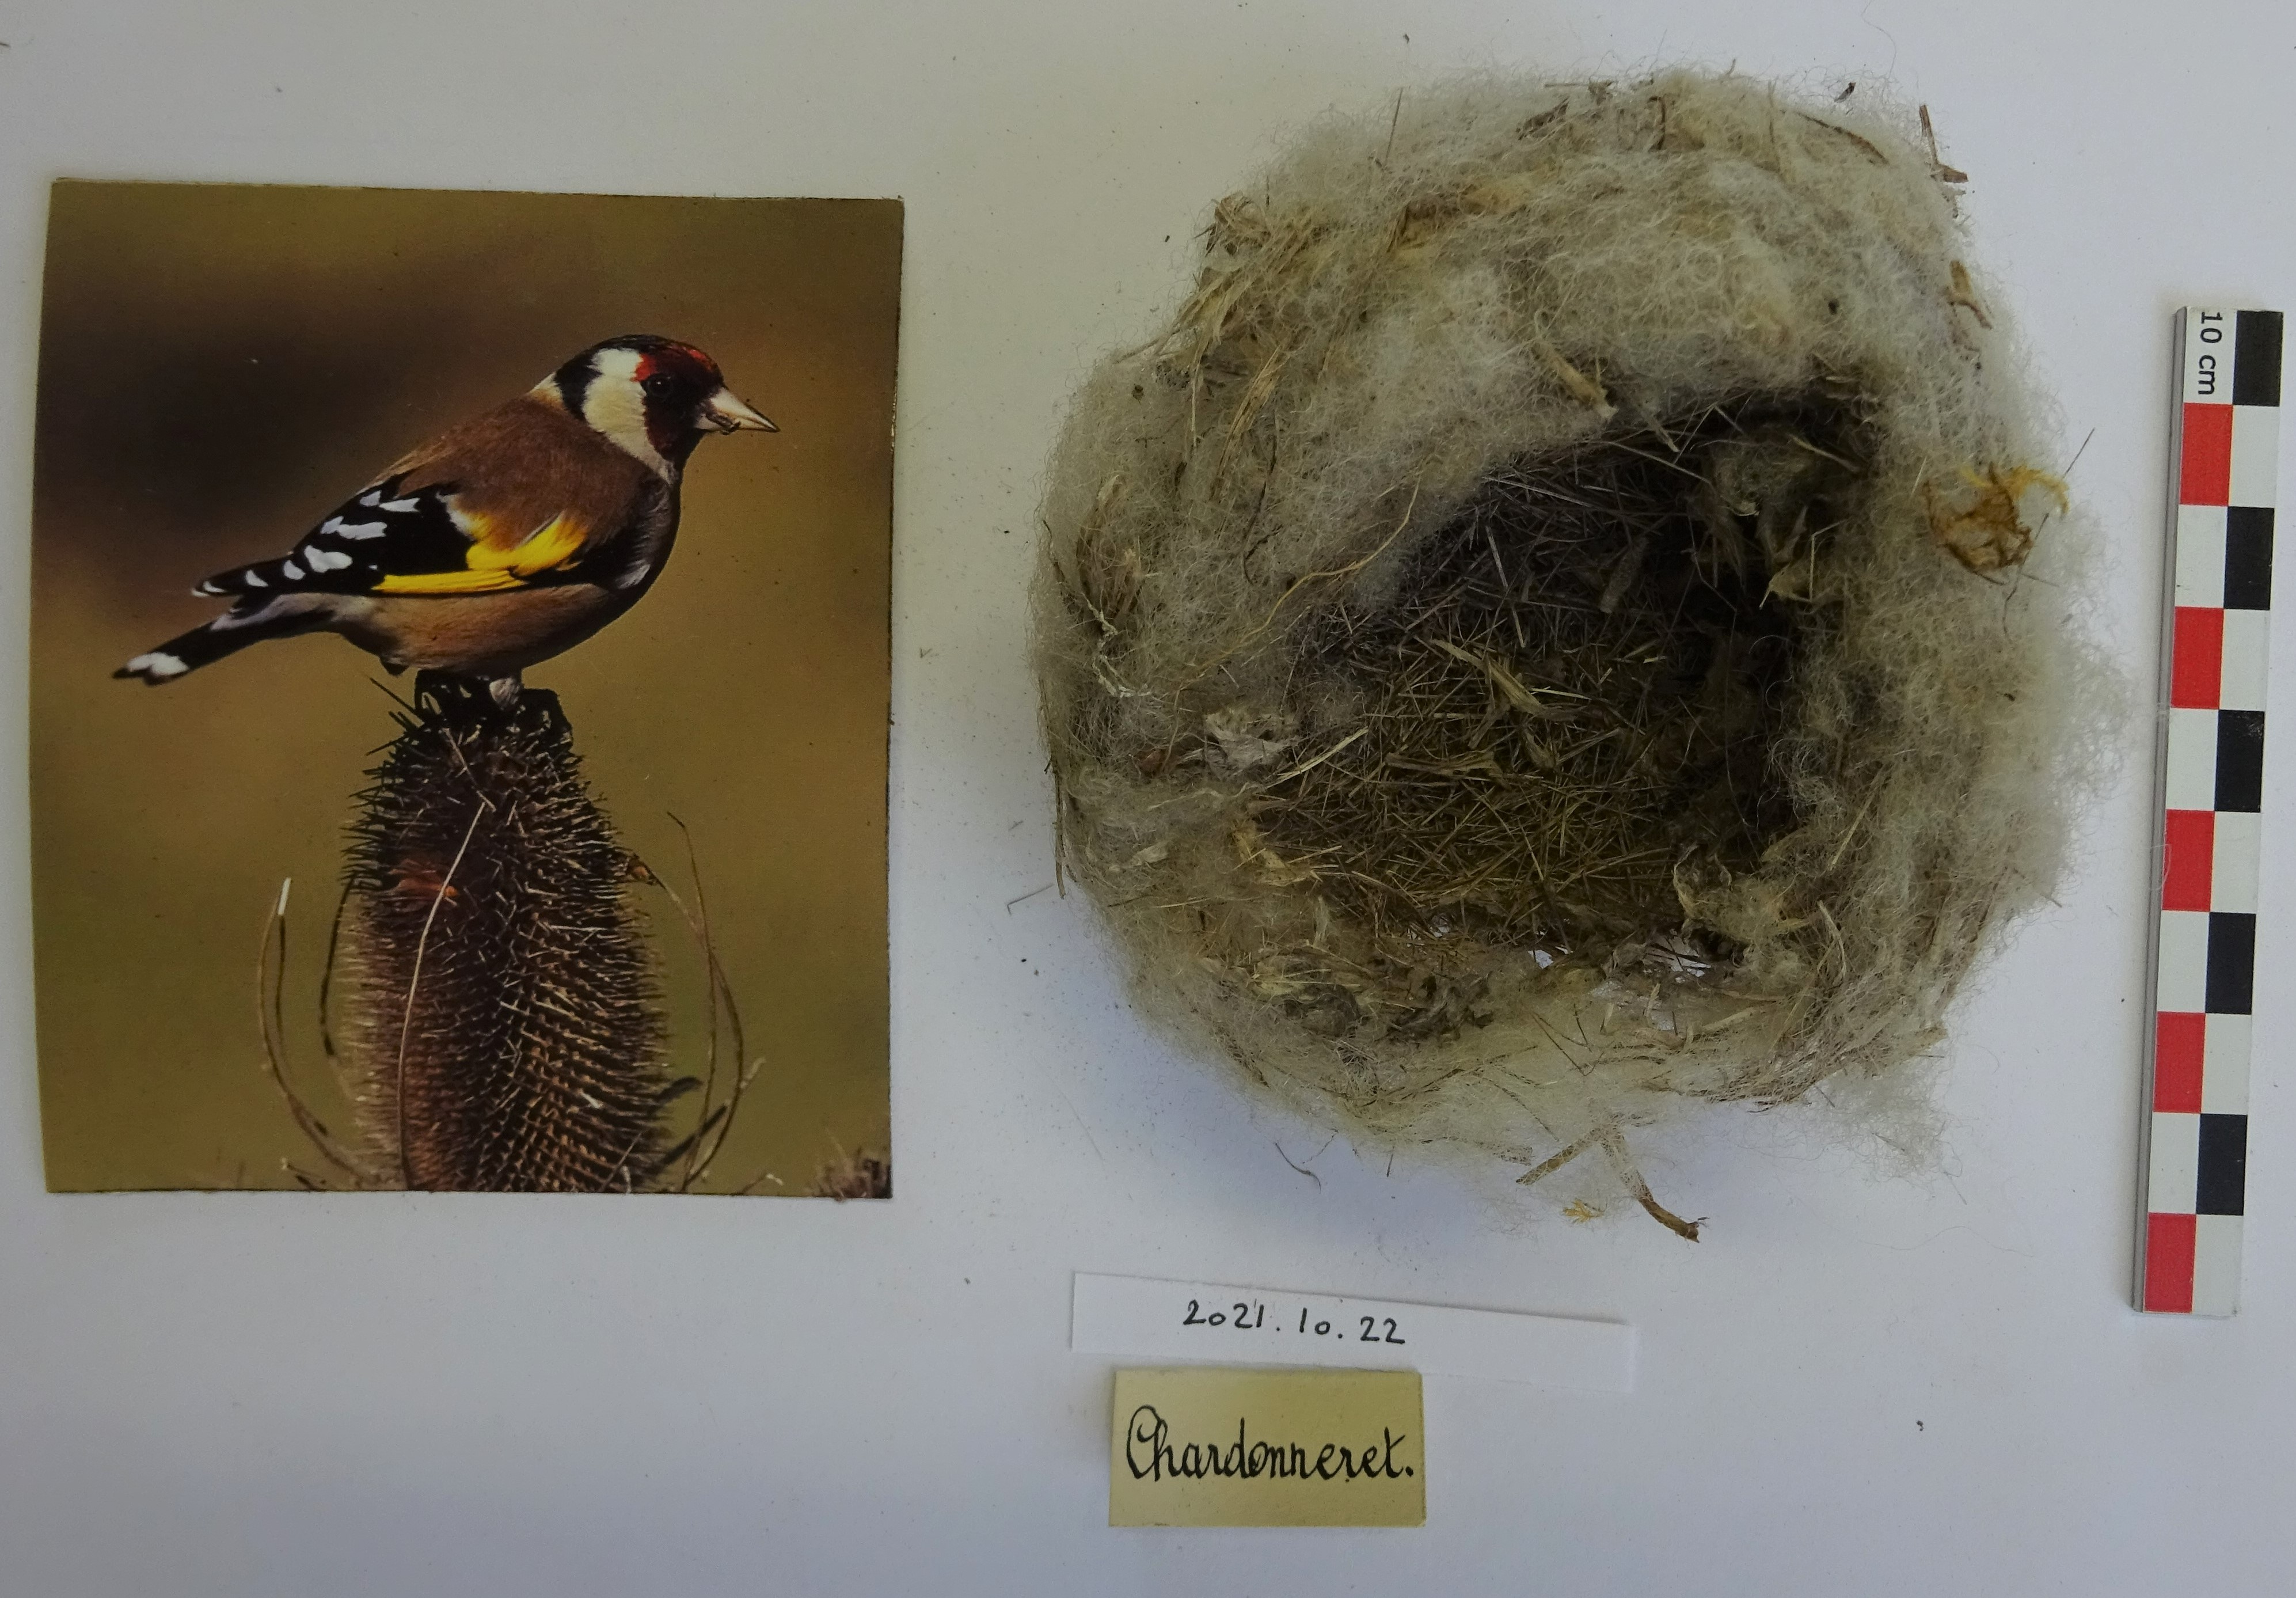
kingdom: Animalia
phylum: Chordata
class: Aves
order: Passeriformes
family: Fringillidae
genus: Carduelis
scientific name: Carduelis carduelis
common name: European goldfinch
